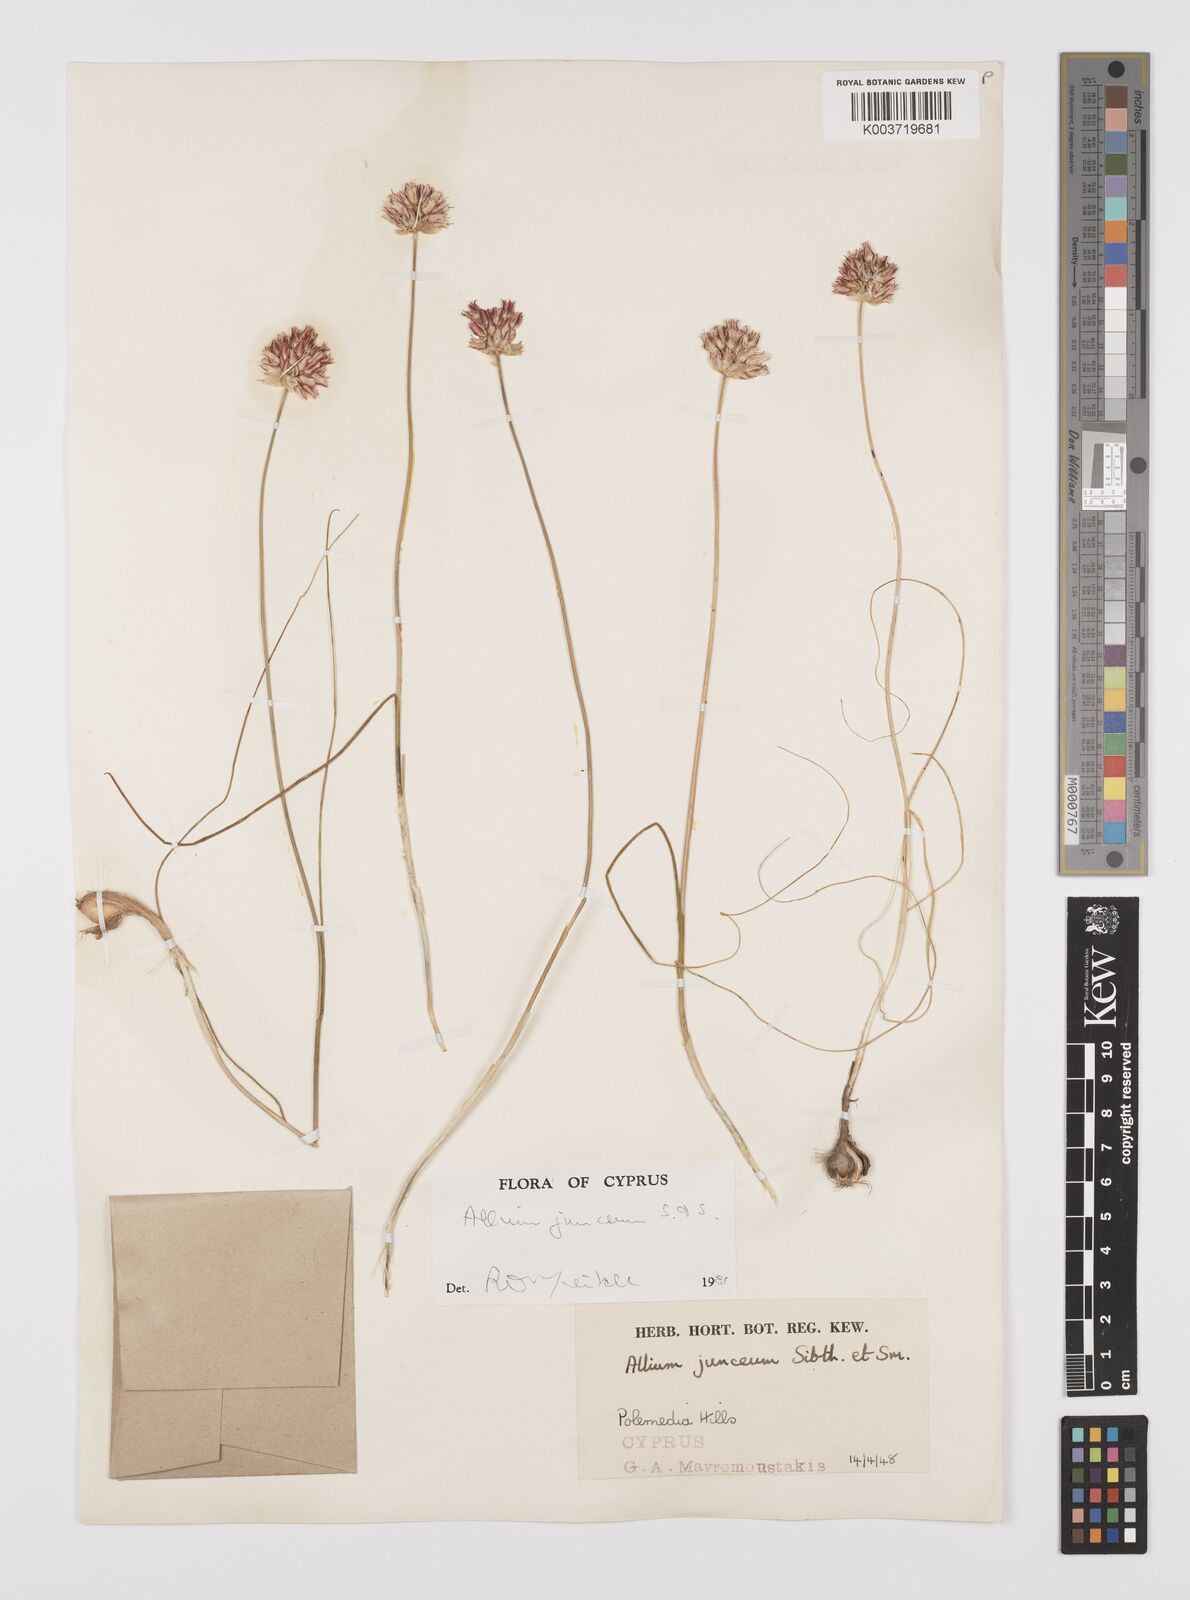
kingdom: Plantae
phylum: Tracheophyta
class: Liliopsida
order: Asparagales
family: Amaryllidaceae
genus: Allium
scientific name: Allium junceum
